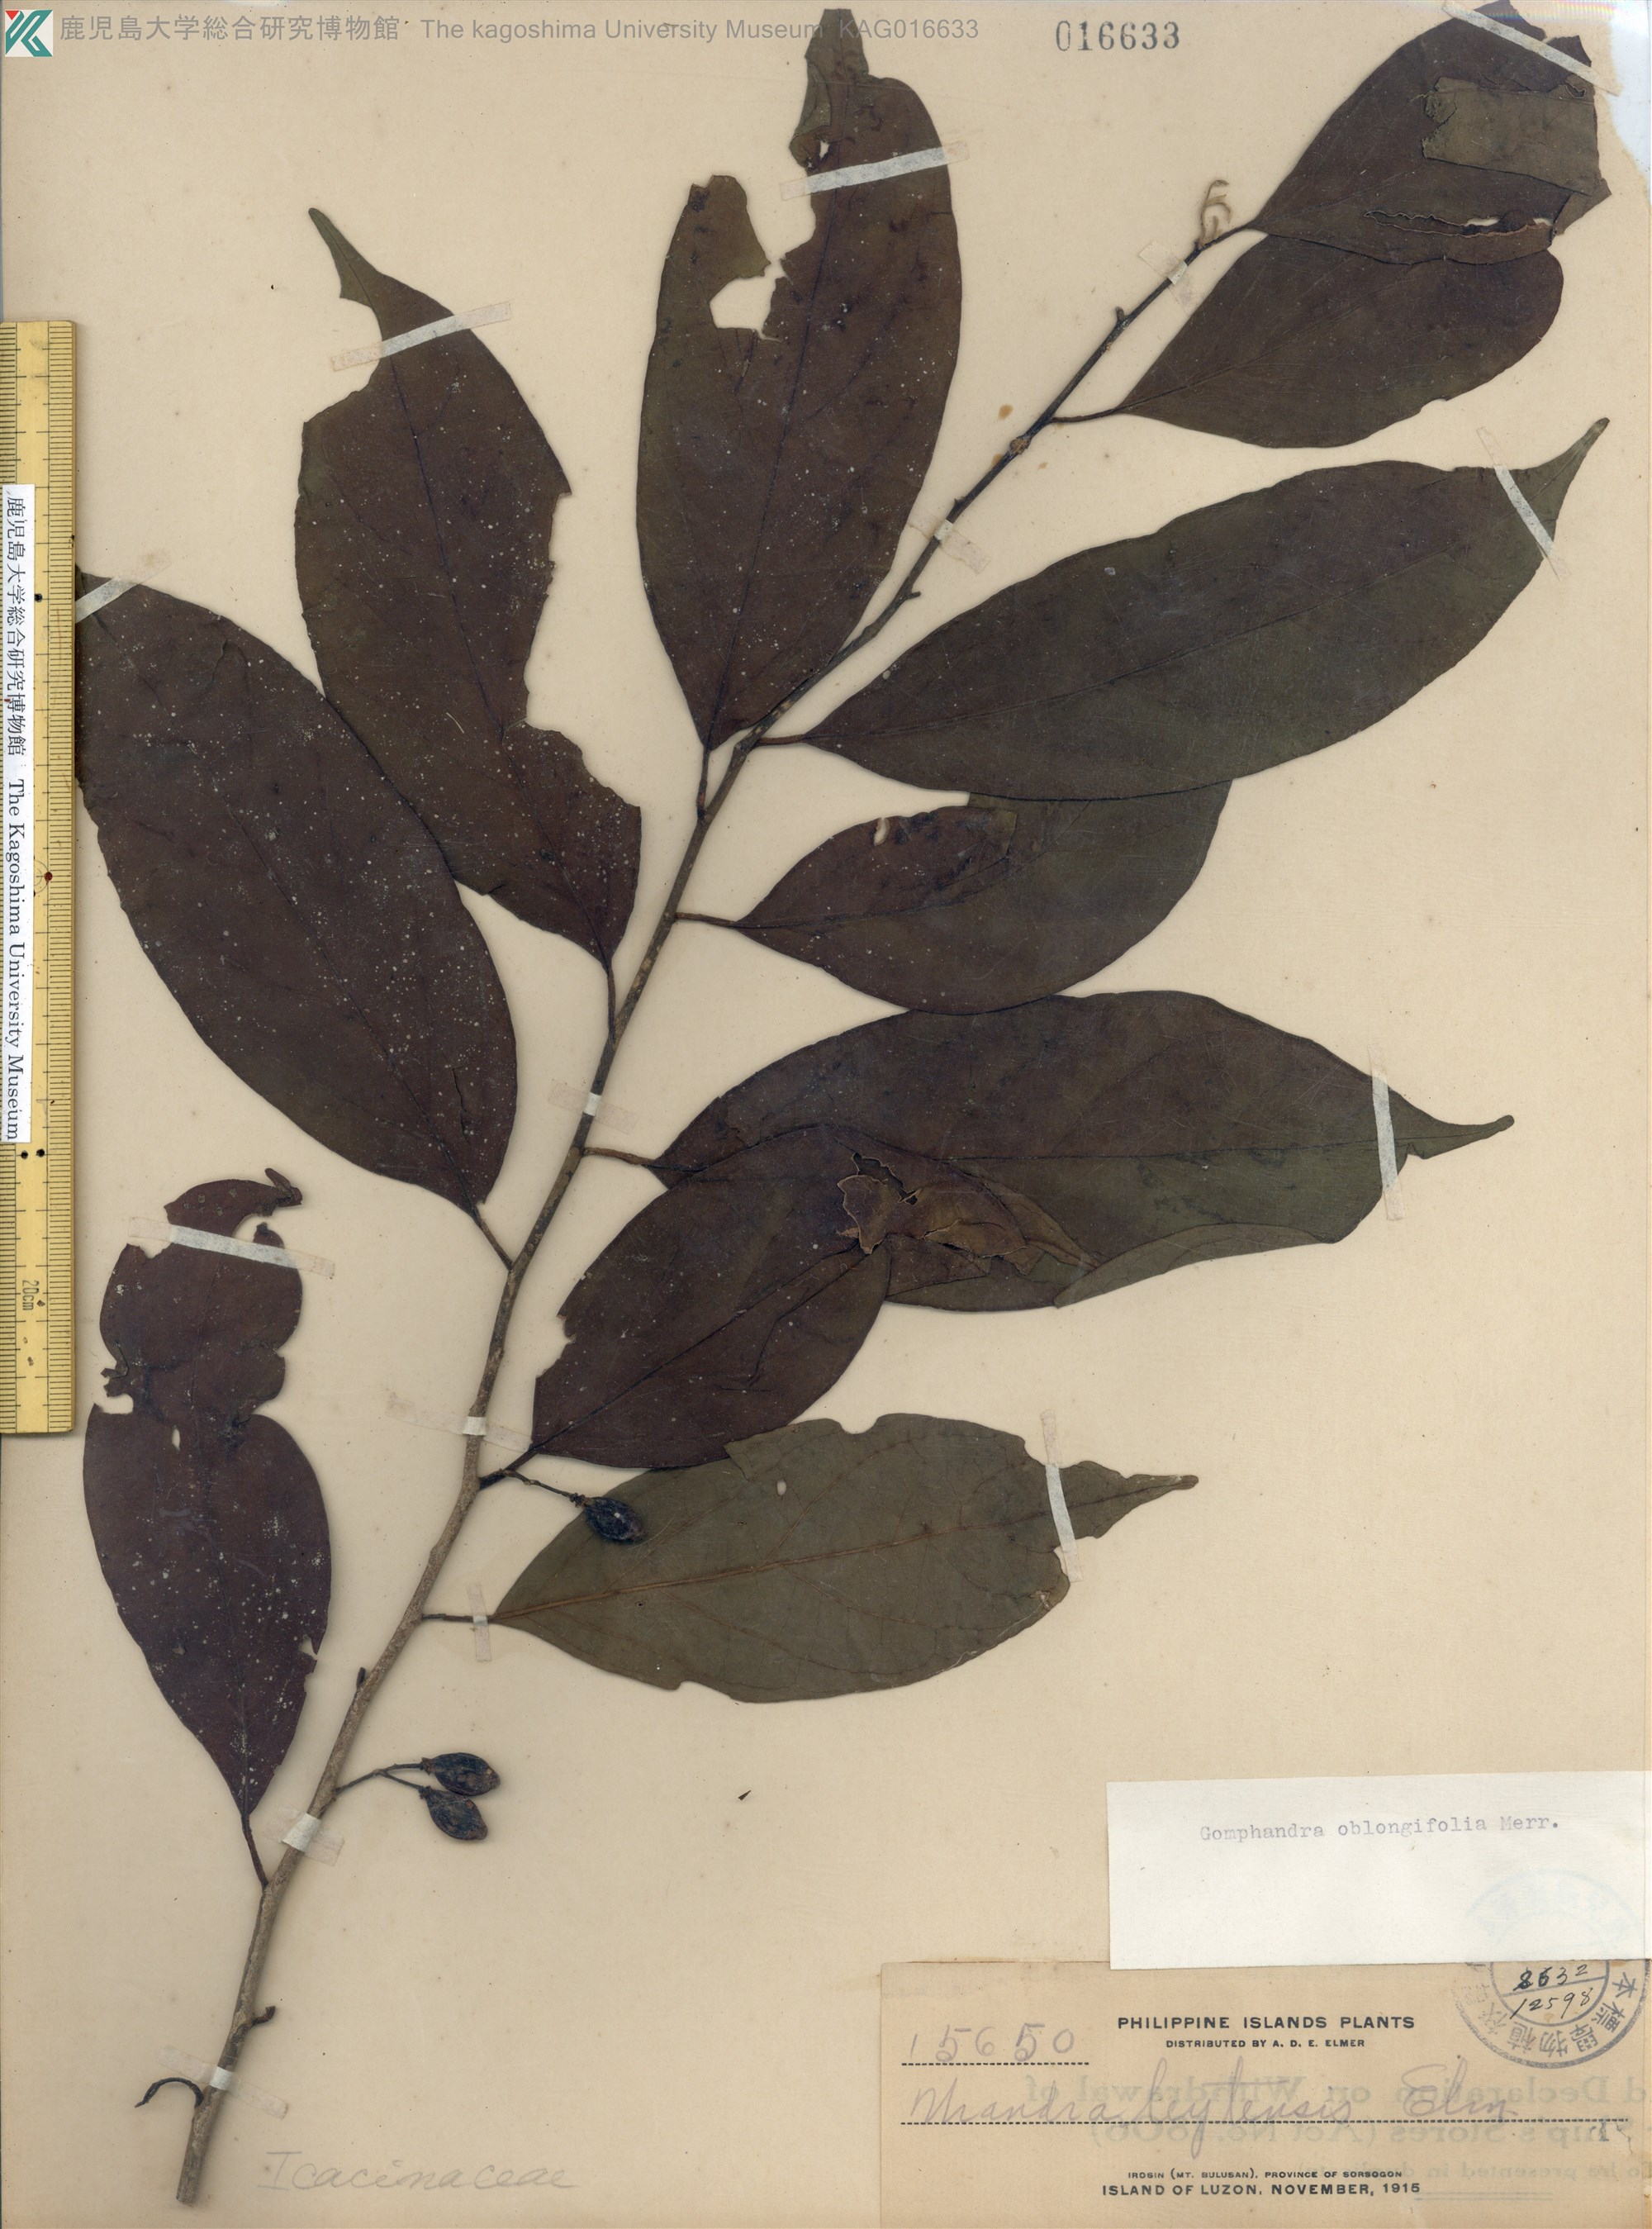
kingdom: Plantae
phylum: Tracheophyta
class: Magnoliopsida
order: Cardiopteridales
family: Stemonuraceae
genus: Gomphandra
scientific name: Gomphandra oblongifolia
